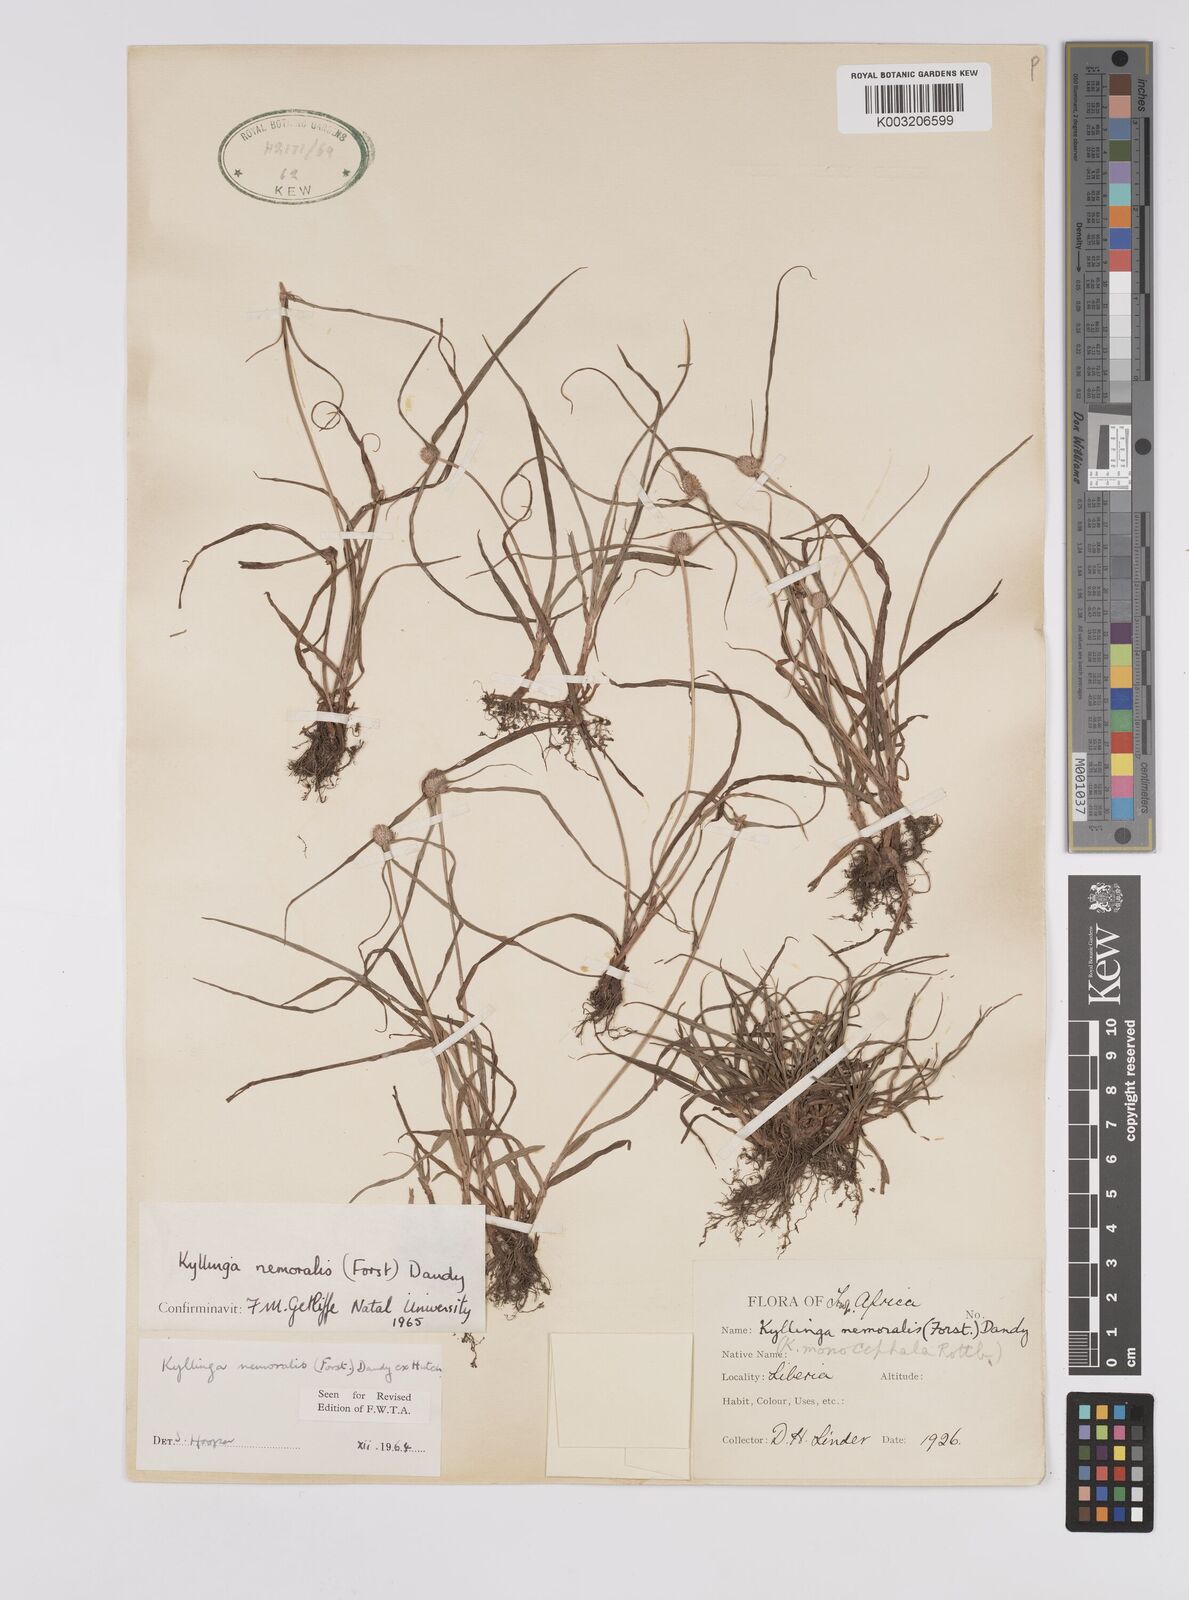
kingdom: Plantae
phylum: Tracheophyta
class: Liliopsida
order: Poales
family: Cyperaceae
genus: Cyperus
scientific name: Cyperus nemoralis
